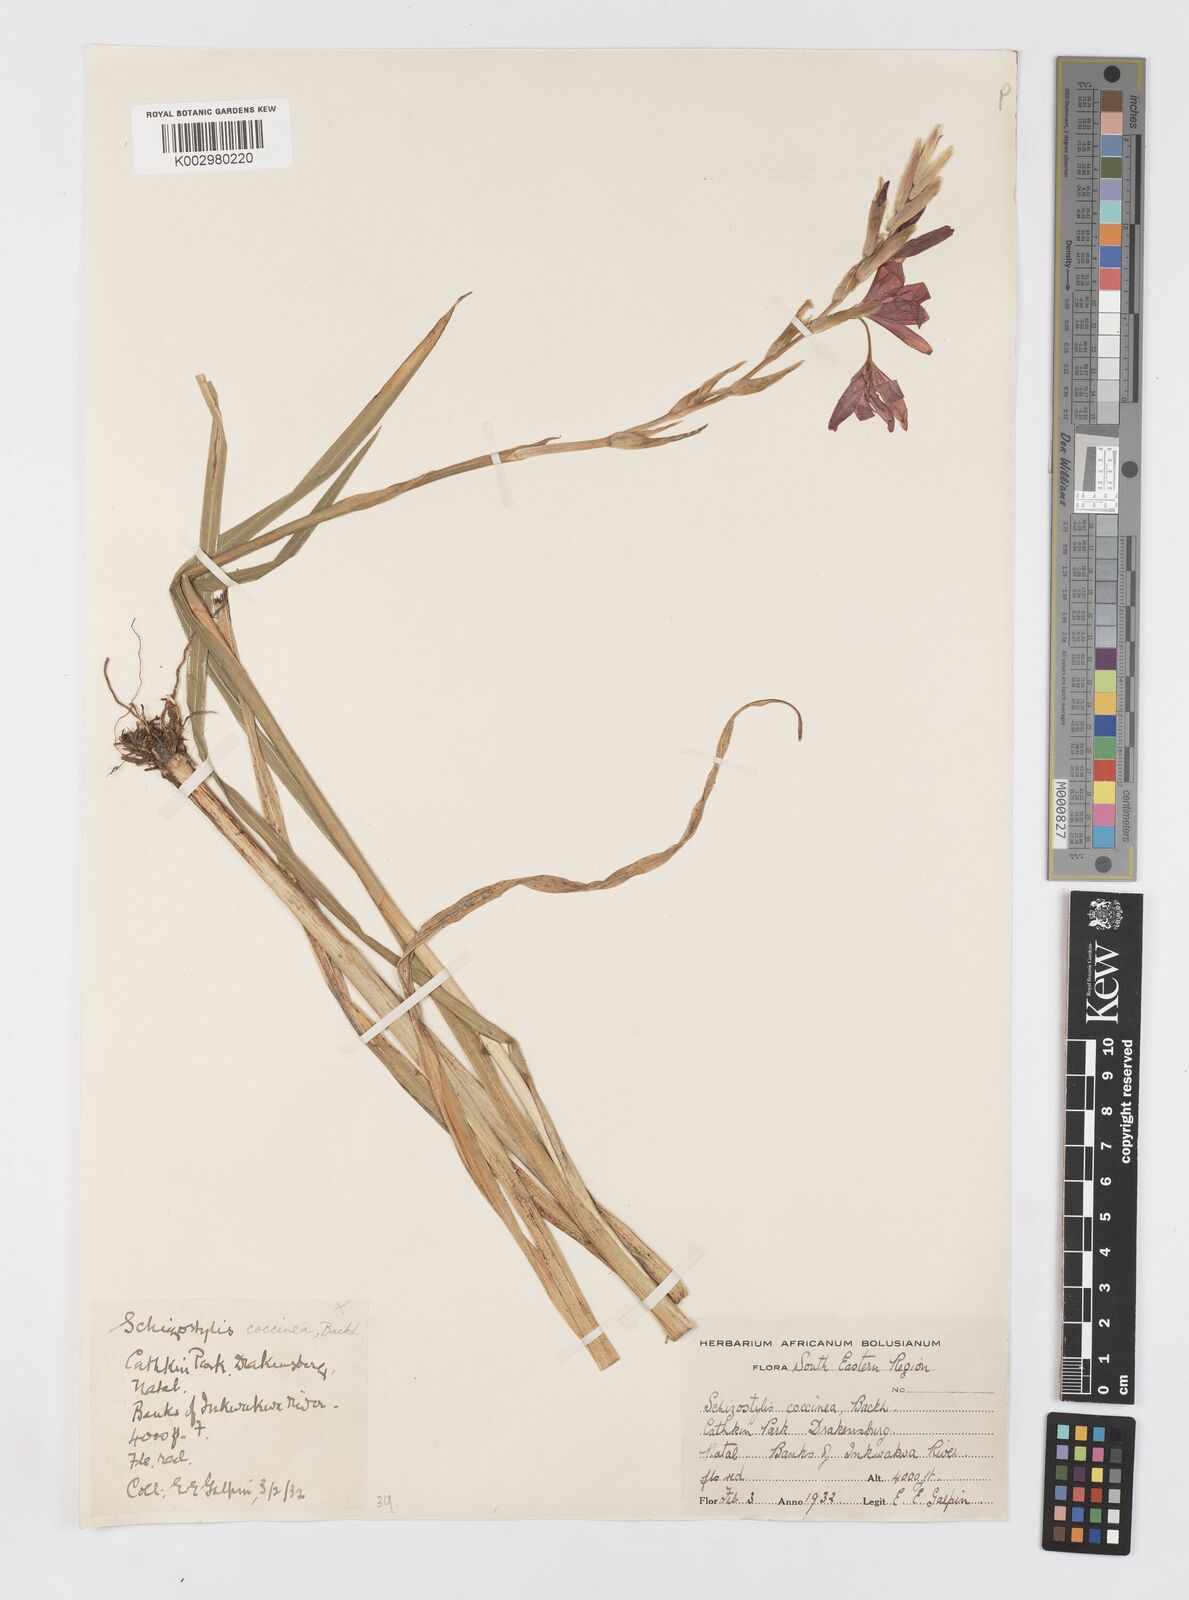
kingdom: Plantae
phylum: Tracheophyta
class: Liliopsida
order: Asparagales
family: Iridaceae
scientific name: Iridaceae
